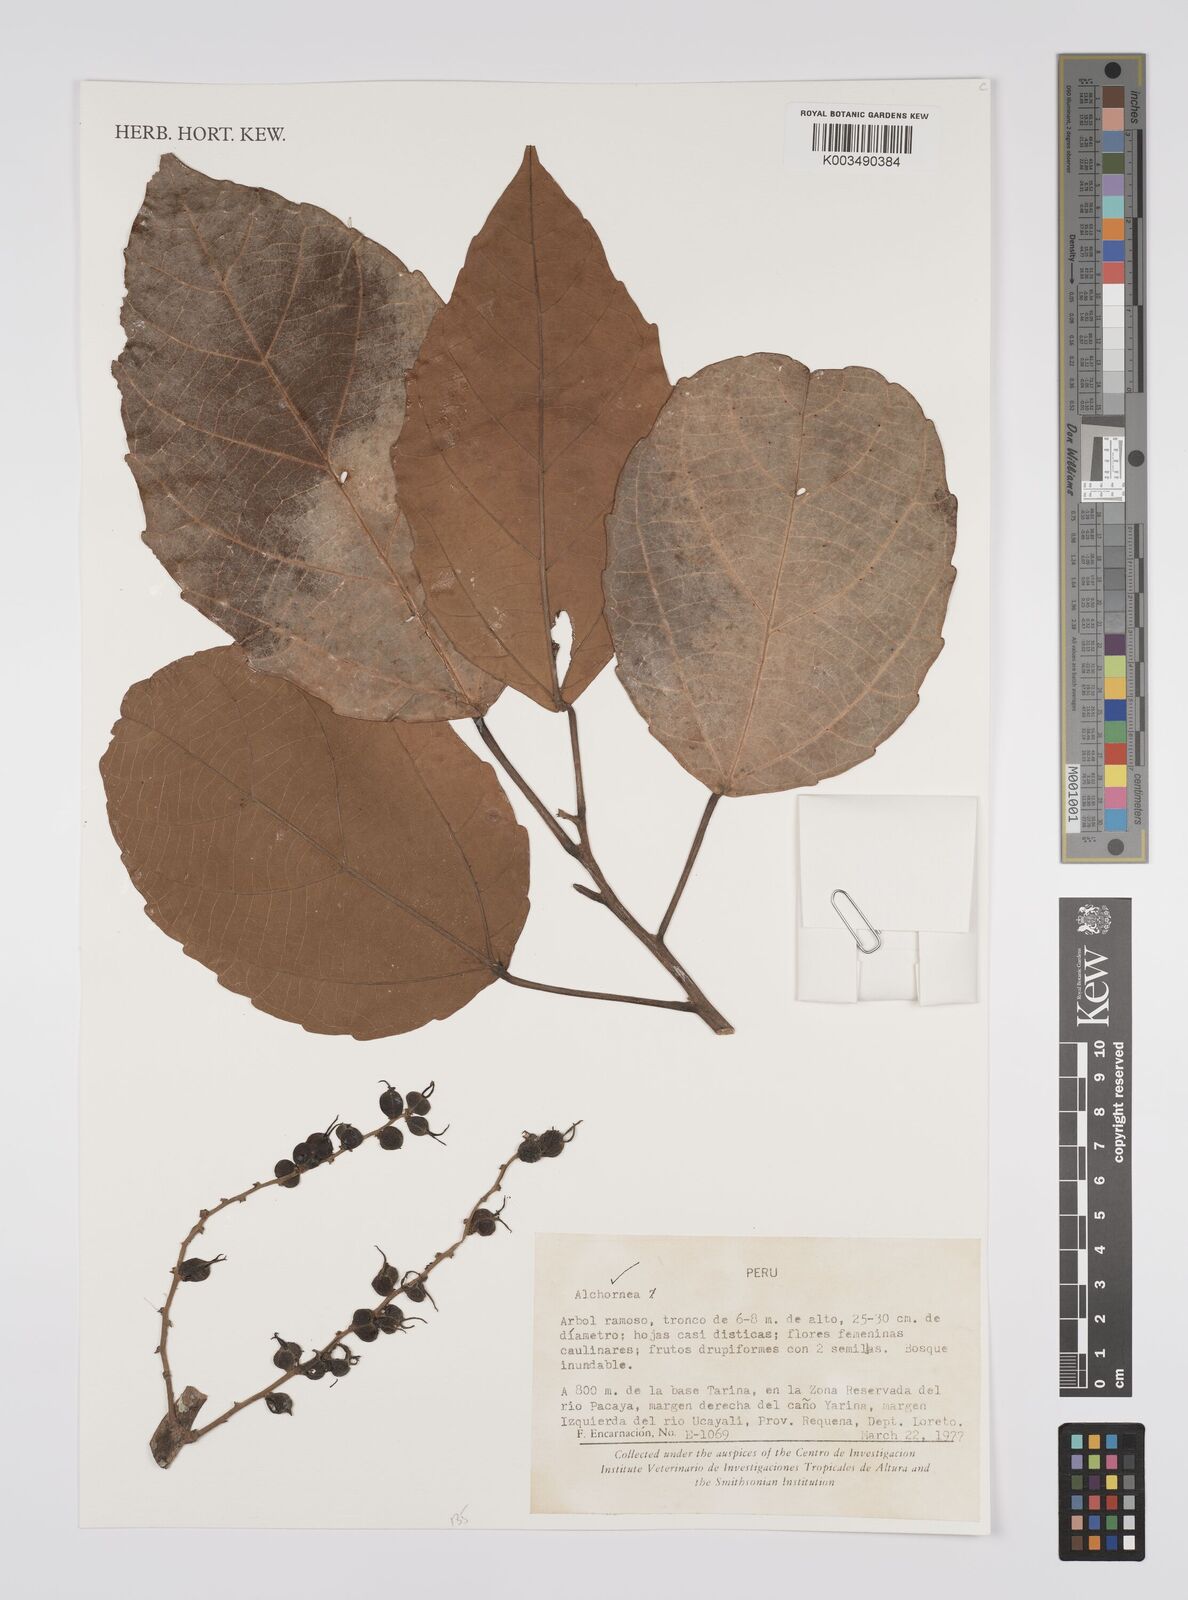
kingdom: Plantae
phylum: Tracheophyta
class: Magnoliopsida
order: Malpighiales
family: Euphorbiaceae
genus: Alchornea
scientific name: Alchornea
